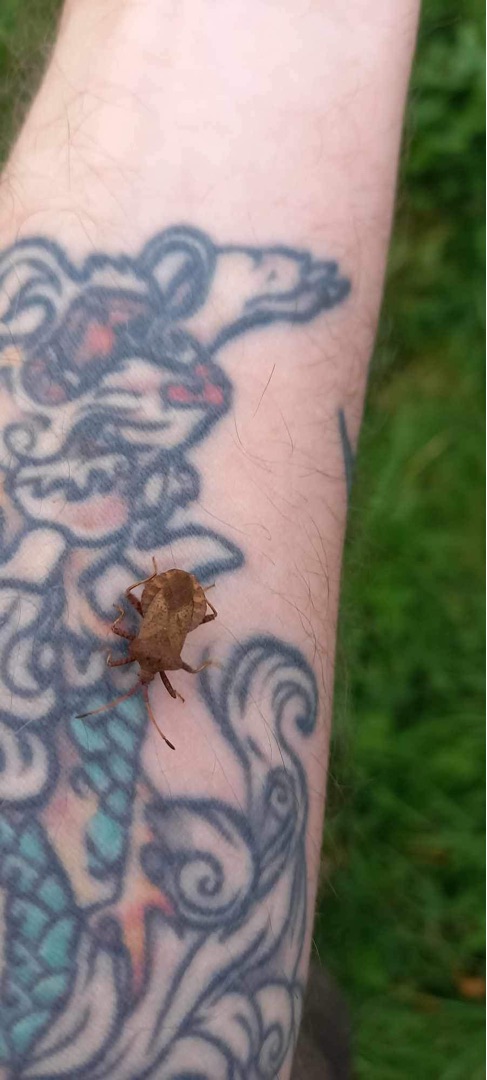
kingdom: Animalia
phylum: Arthropoda
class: Insecta
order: Hemiptera
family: Coreidae
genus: Coreus
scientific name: Coreus marginatus
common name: Skræppetæge
